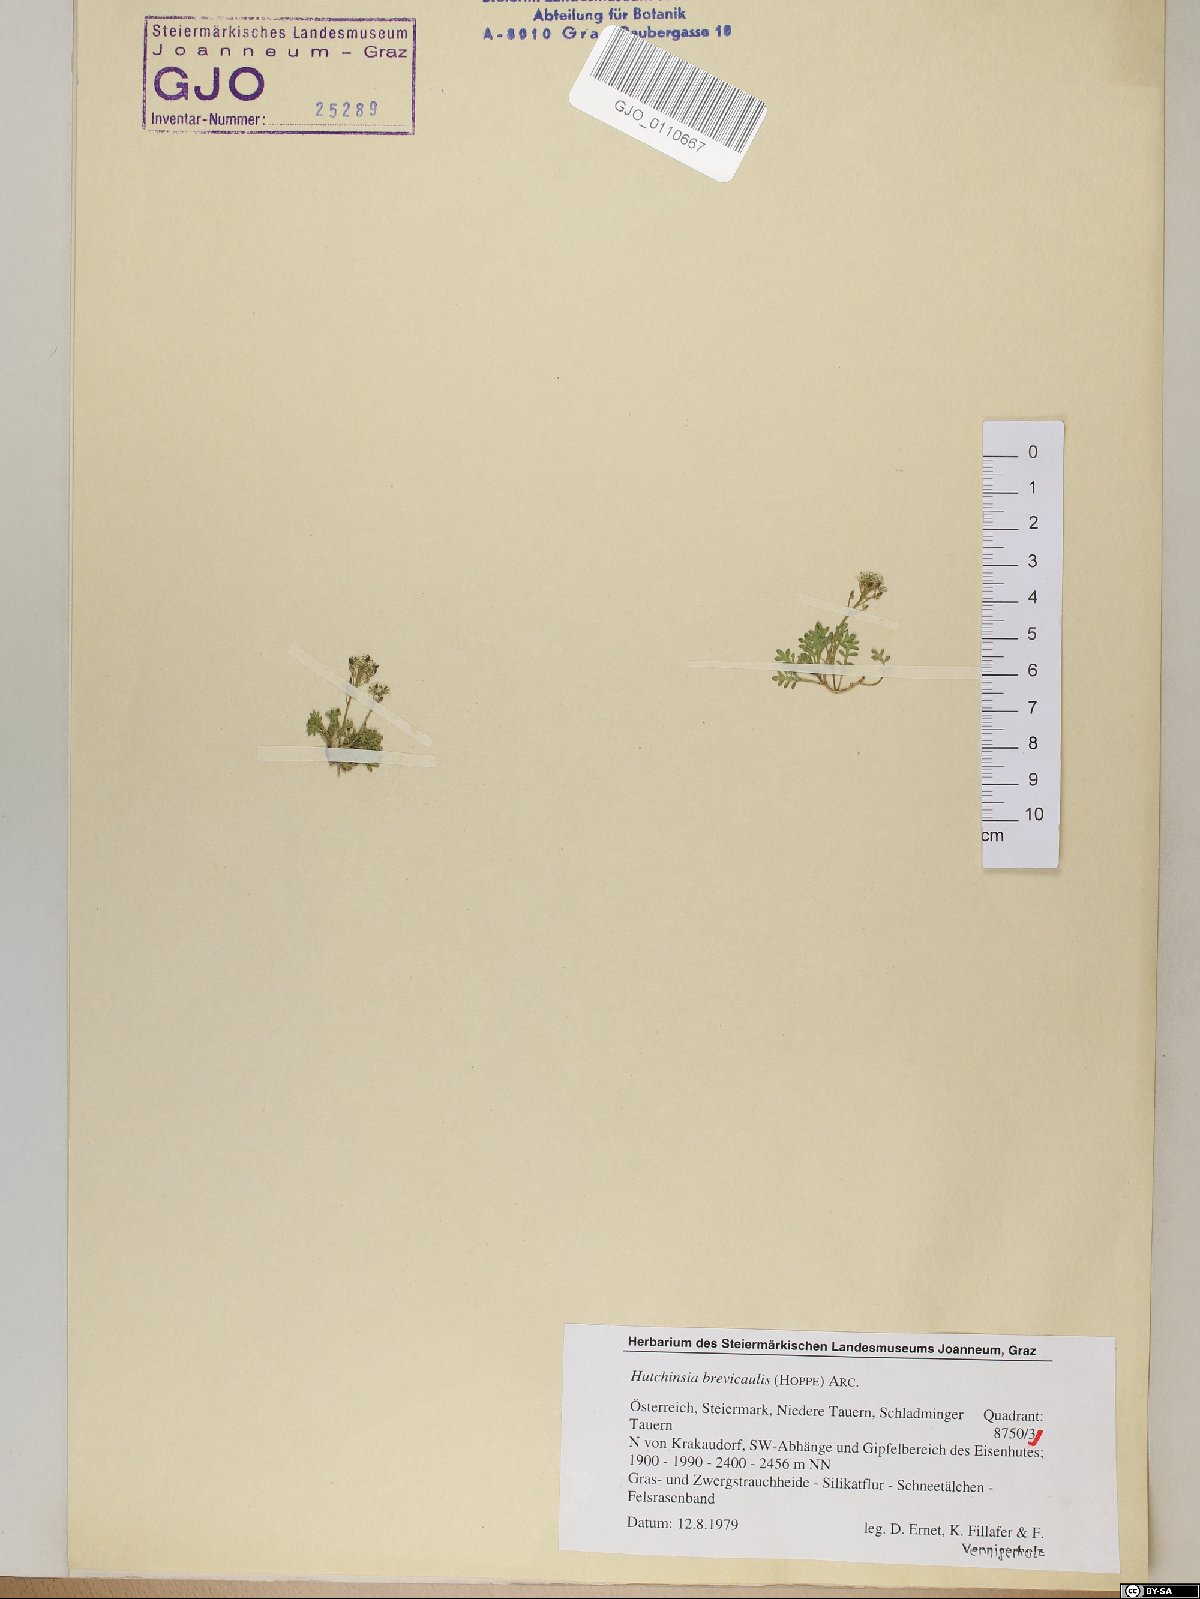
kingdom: Plantae
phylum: Tracheophyta
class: Magnoliopsida
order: Brassicales
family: Brassicaceae
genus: Hornungia
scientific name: Hornungia alpina
